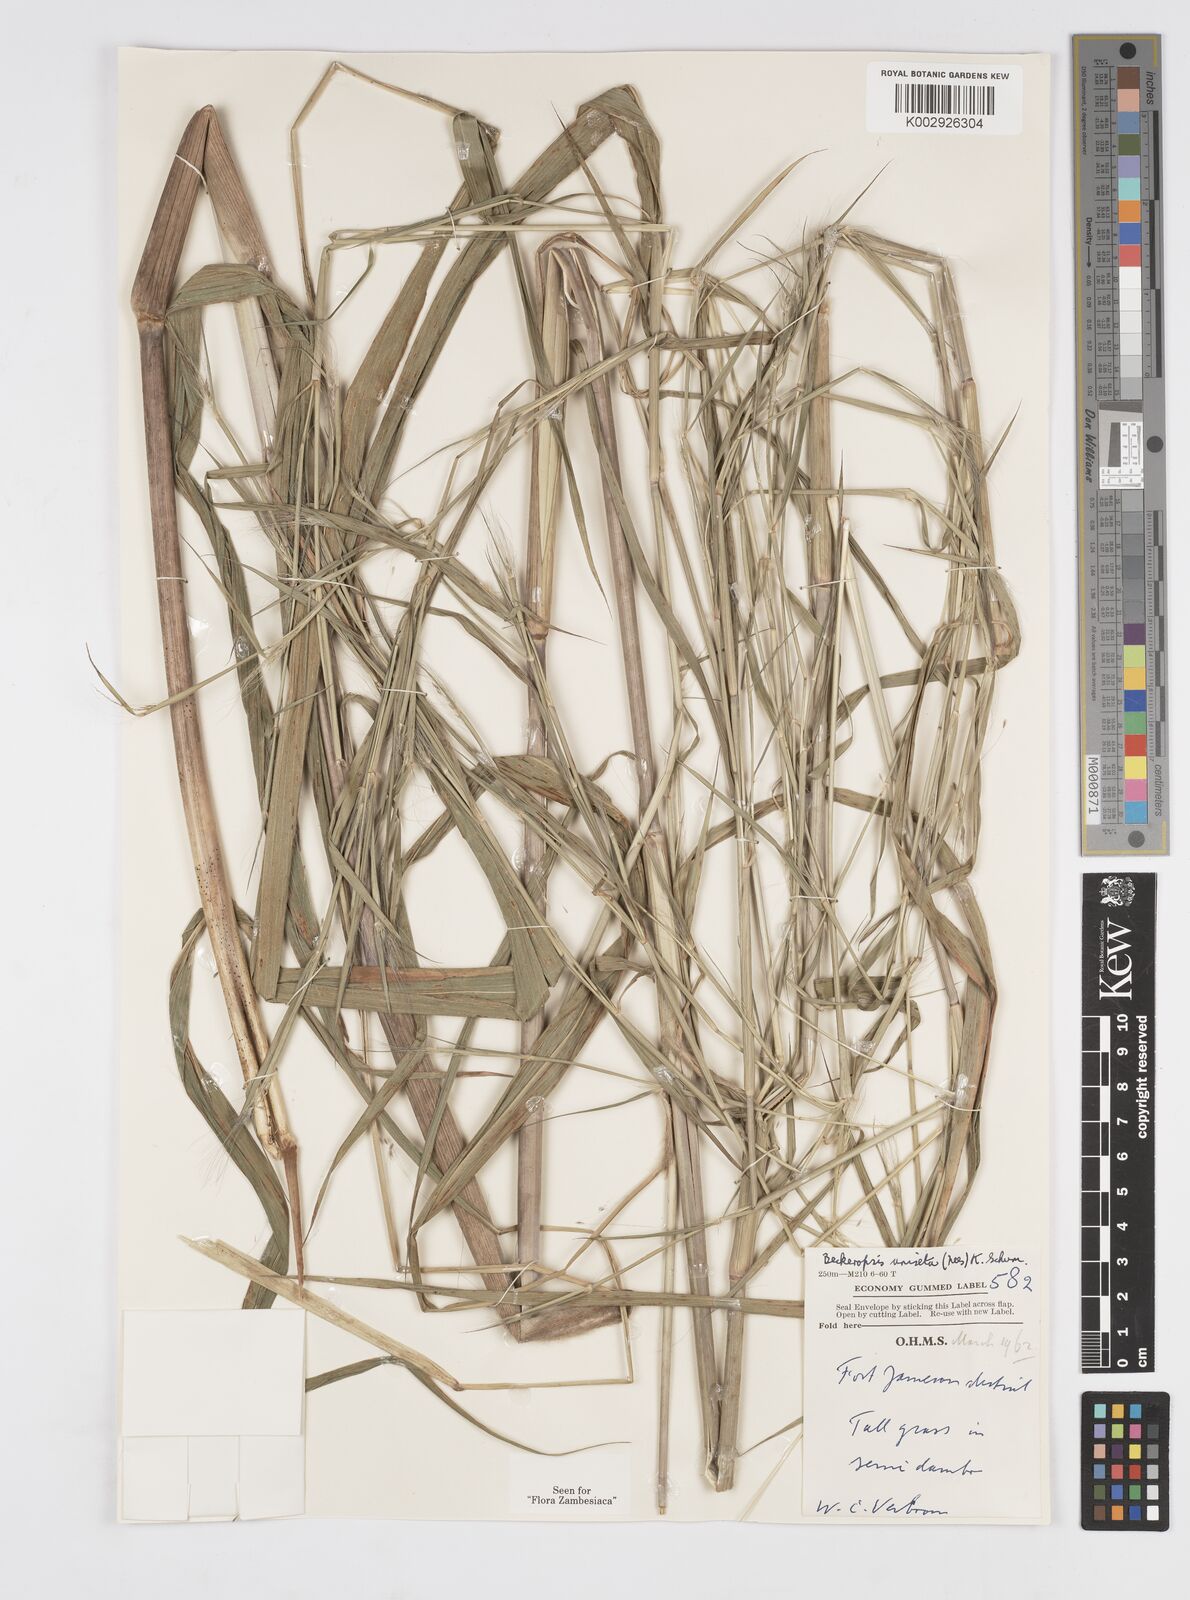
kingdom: Plantae
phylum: Tracheophyta
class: Liliopsida
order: Poales
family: Poaceae
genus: Cenchrus
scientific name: Cenchrus unisetus
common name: Natal grass
